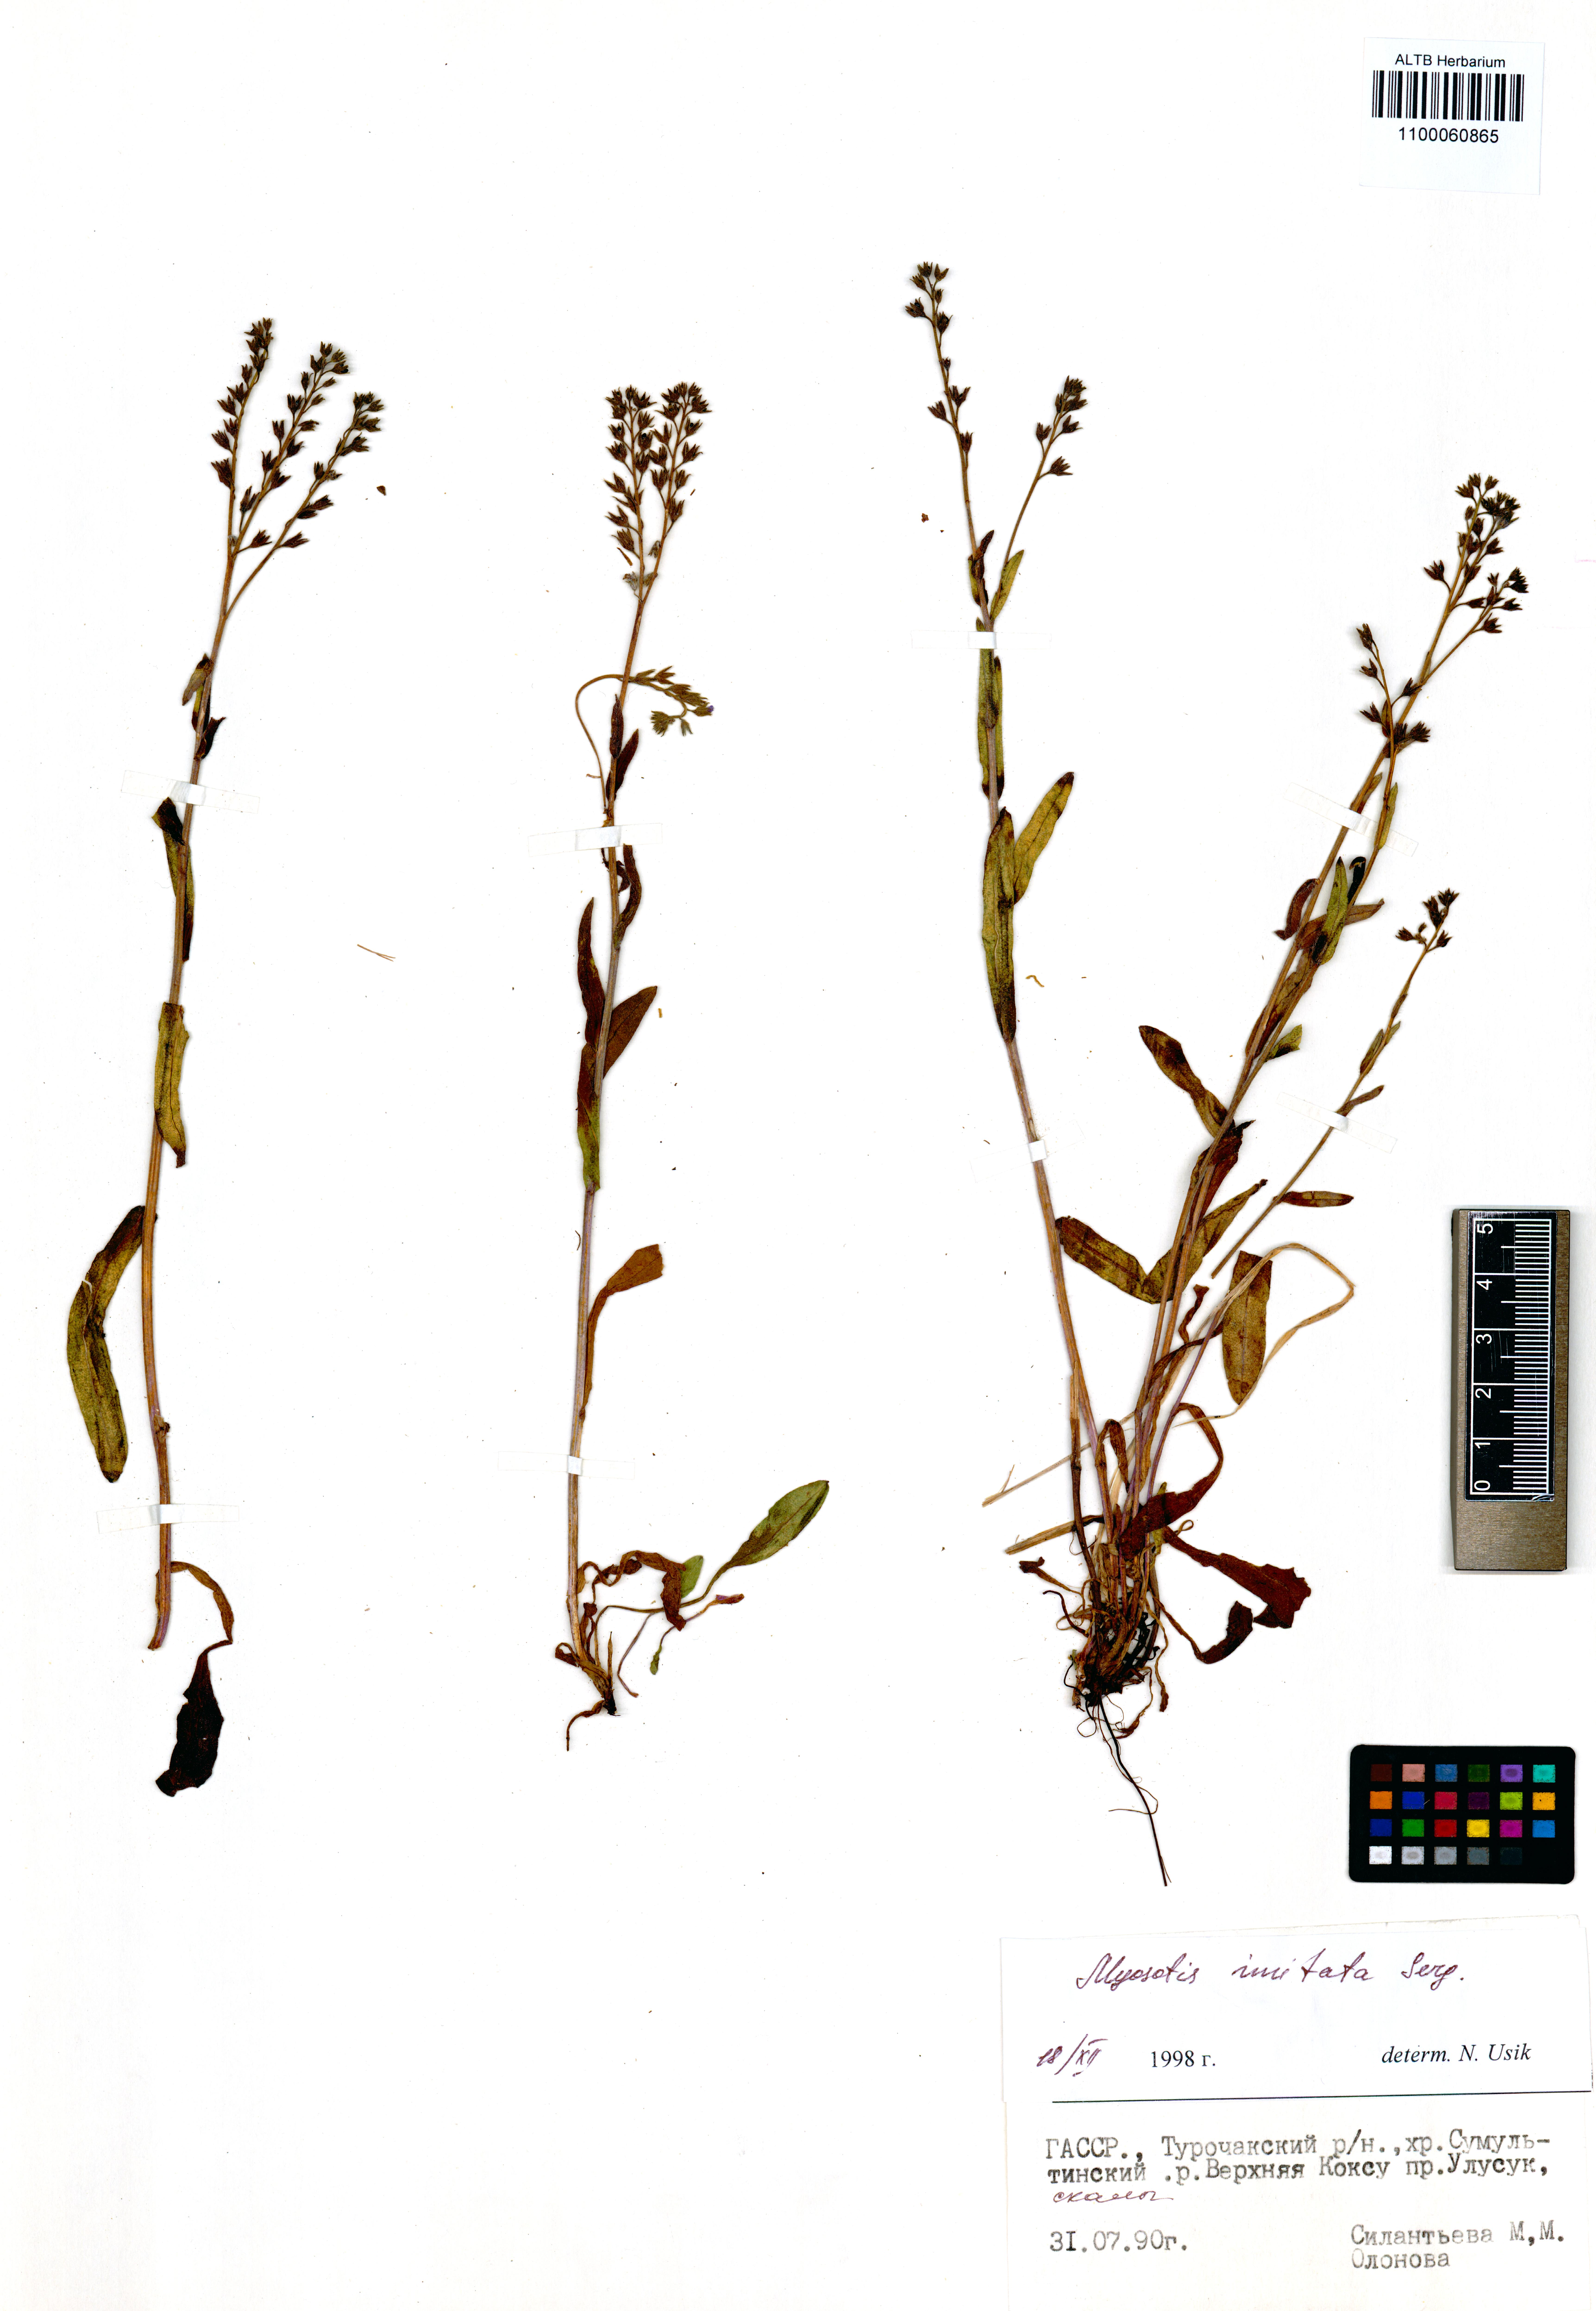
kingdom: Plantae
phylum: Tracheophyta
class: Magnoliopsida
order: Boraginales
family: Boraginaceae
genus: Myosotis
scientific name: Myosotis imitata
